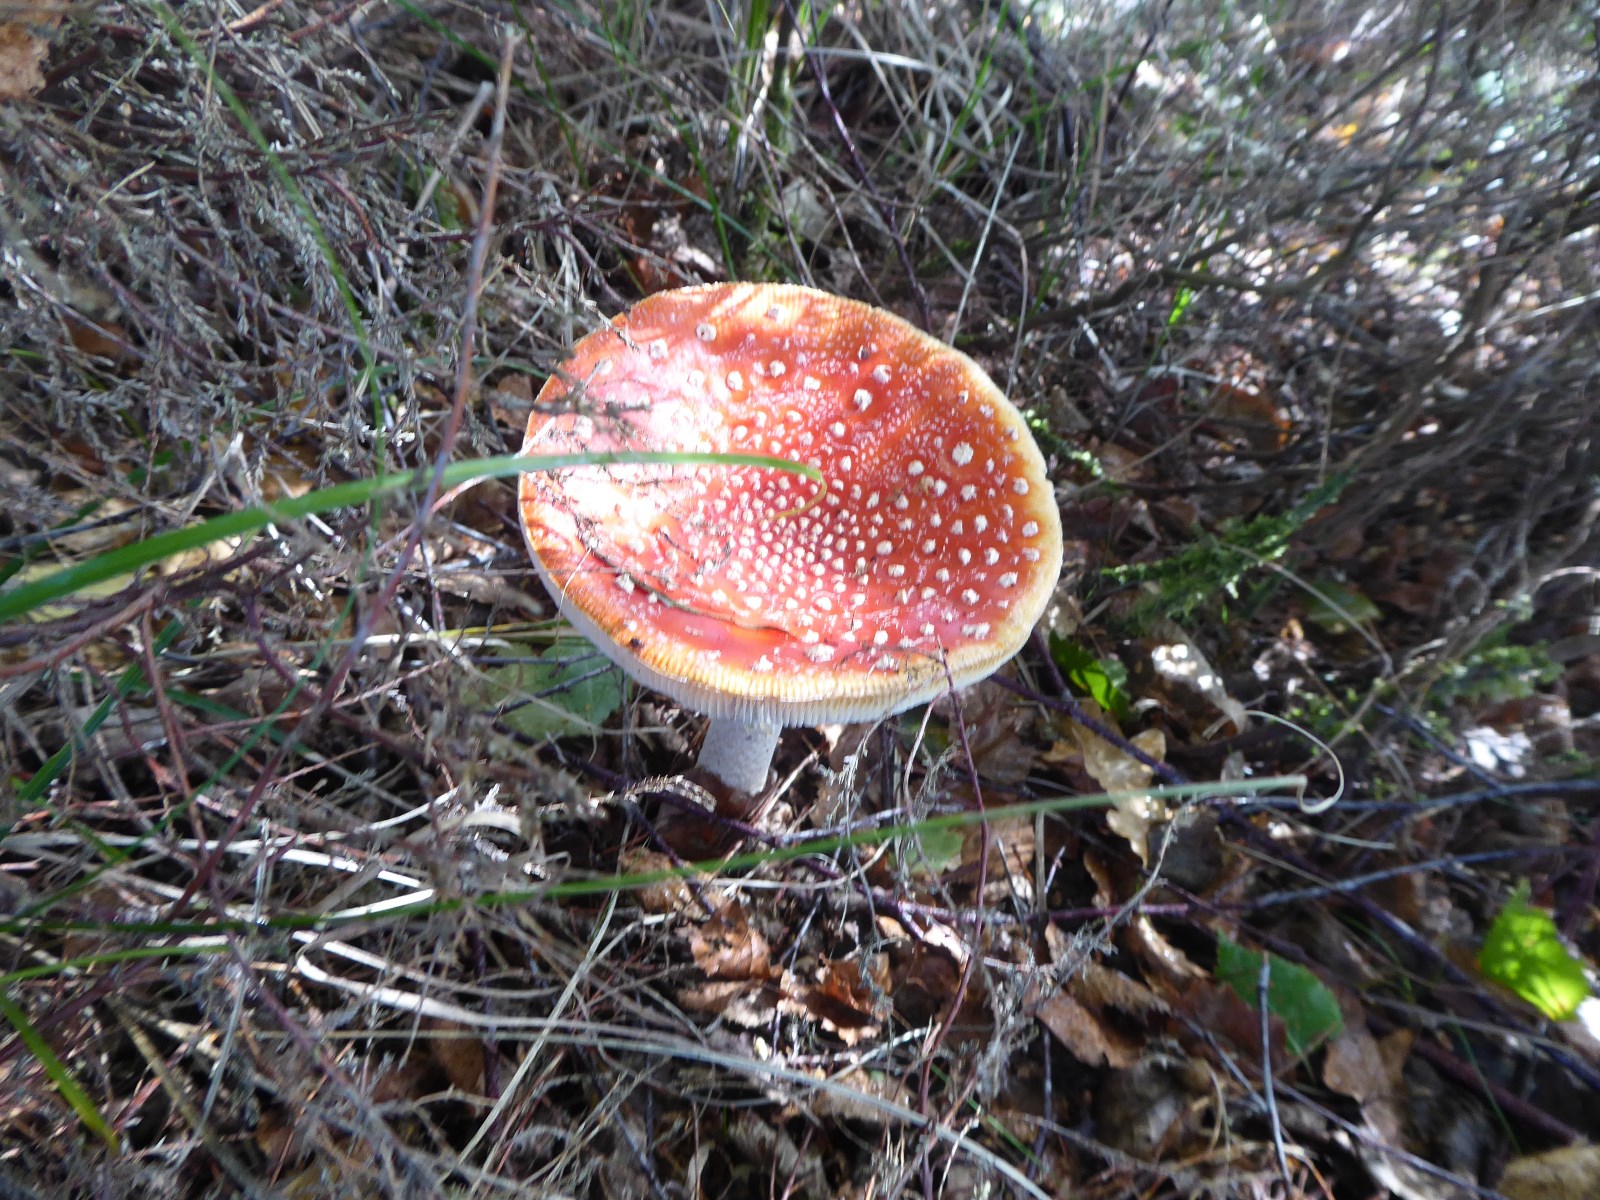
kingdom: Fungi
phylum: Basidiomycota
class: Agaricomycetes
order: Agaricales
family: Amanitaceae
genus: Amanita
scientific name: Amanita muscaria
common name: rød fluesvamp
